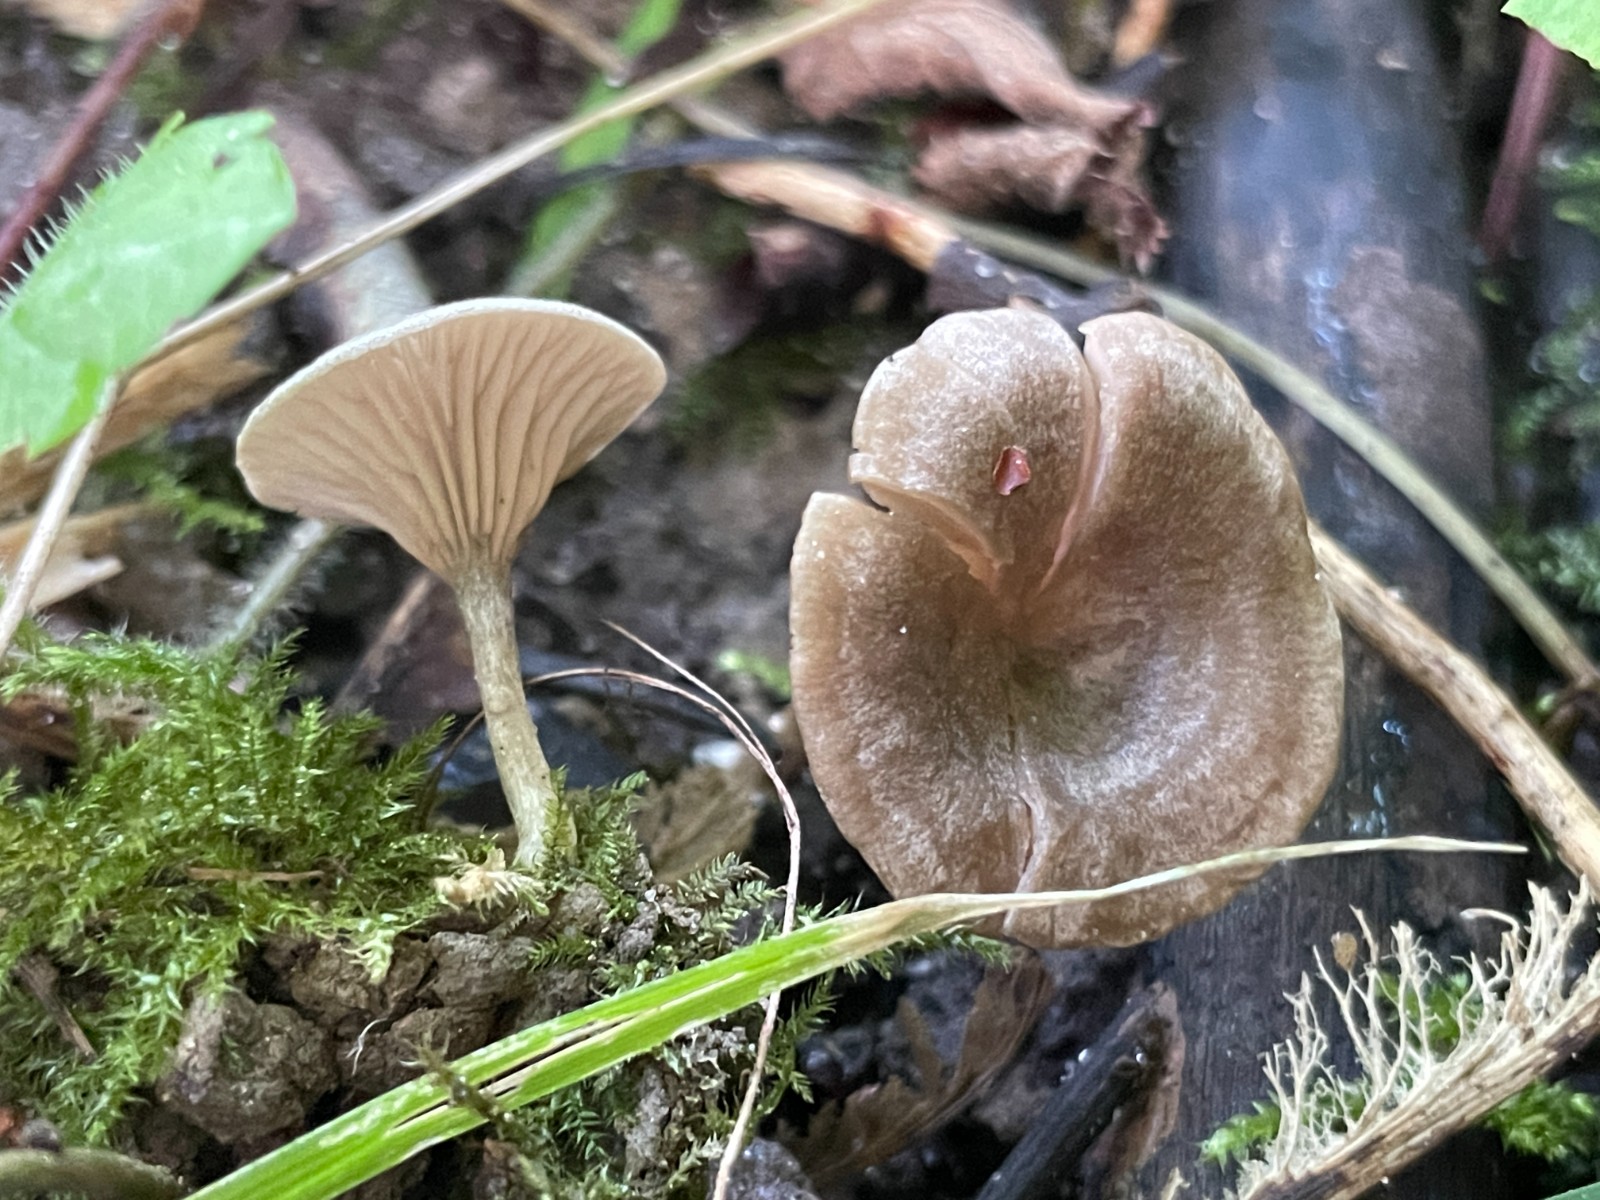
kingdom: Fungi
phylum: Basidiomycota
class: Agaricomycetes
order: Agaricales
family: Entolomataceae
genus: Entoloma
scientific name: Entoloma undatum
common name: bæltet rødblad
